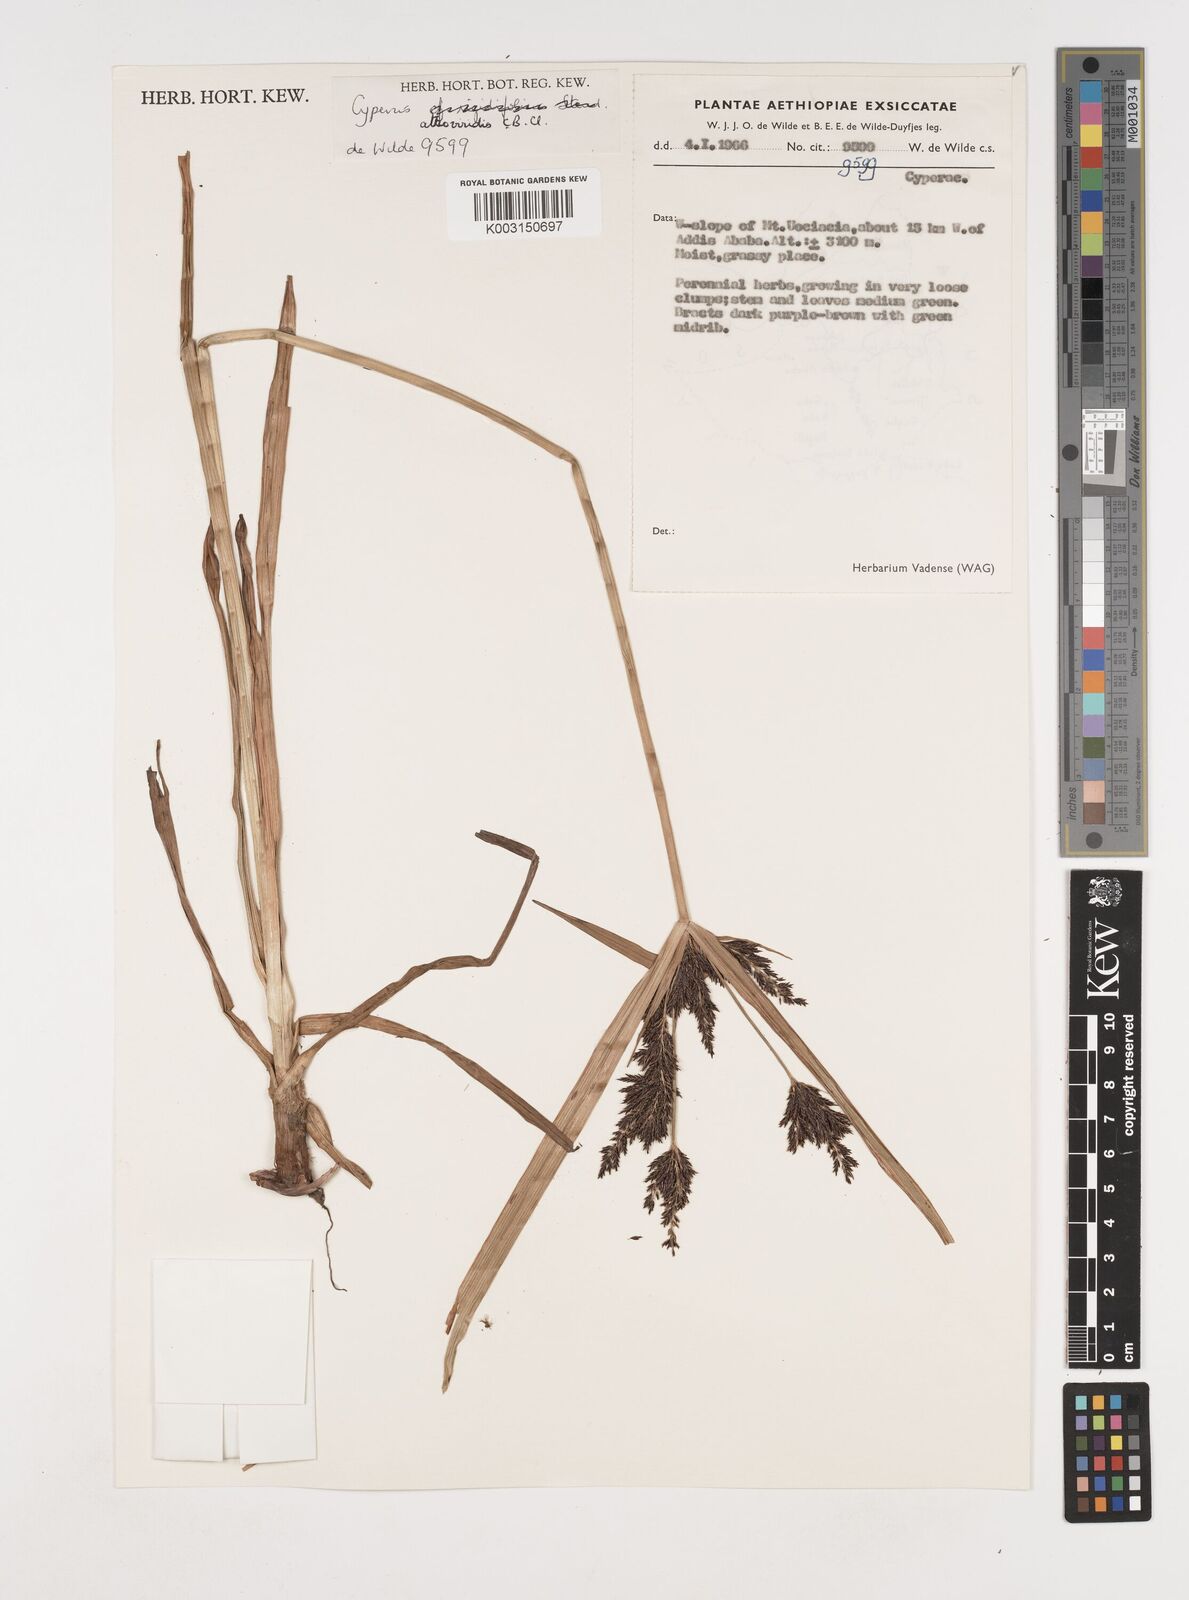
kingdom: Plantae
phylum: Tracheophyta
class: Liliopsida
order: Poales
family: Cyperaceae
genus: Cyperus
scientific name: Cyperus aterrimus
